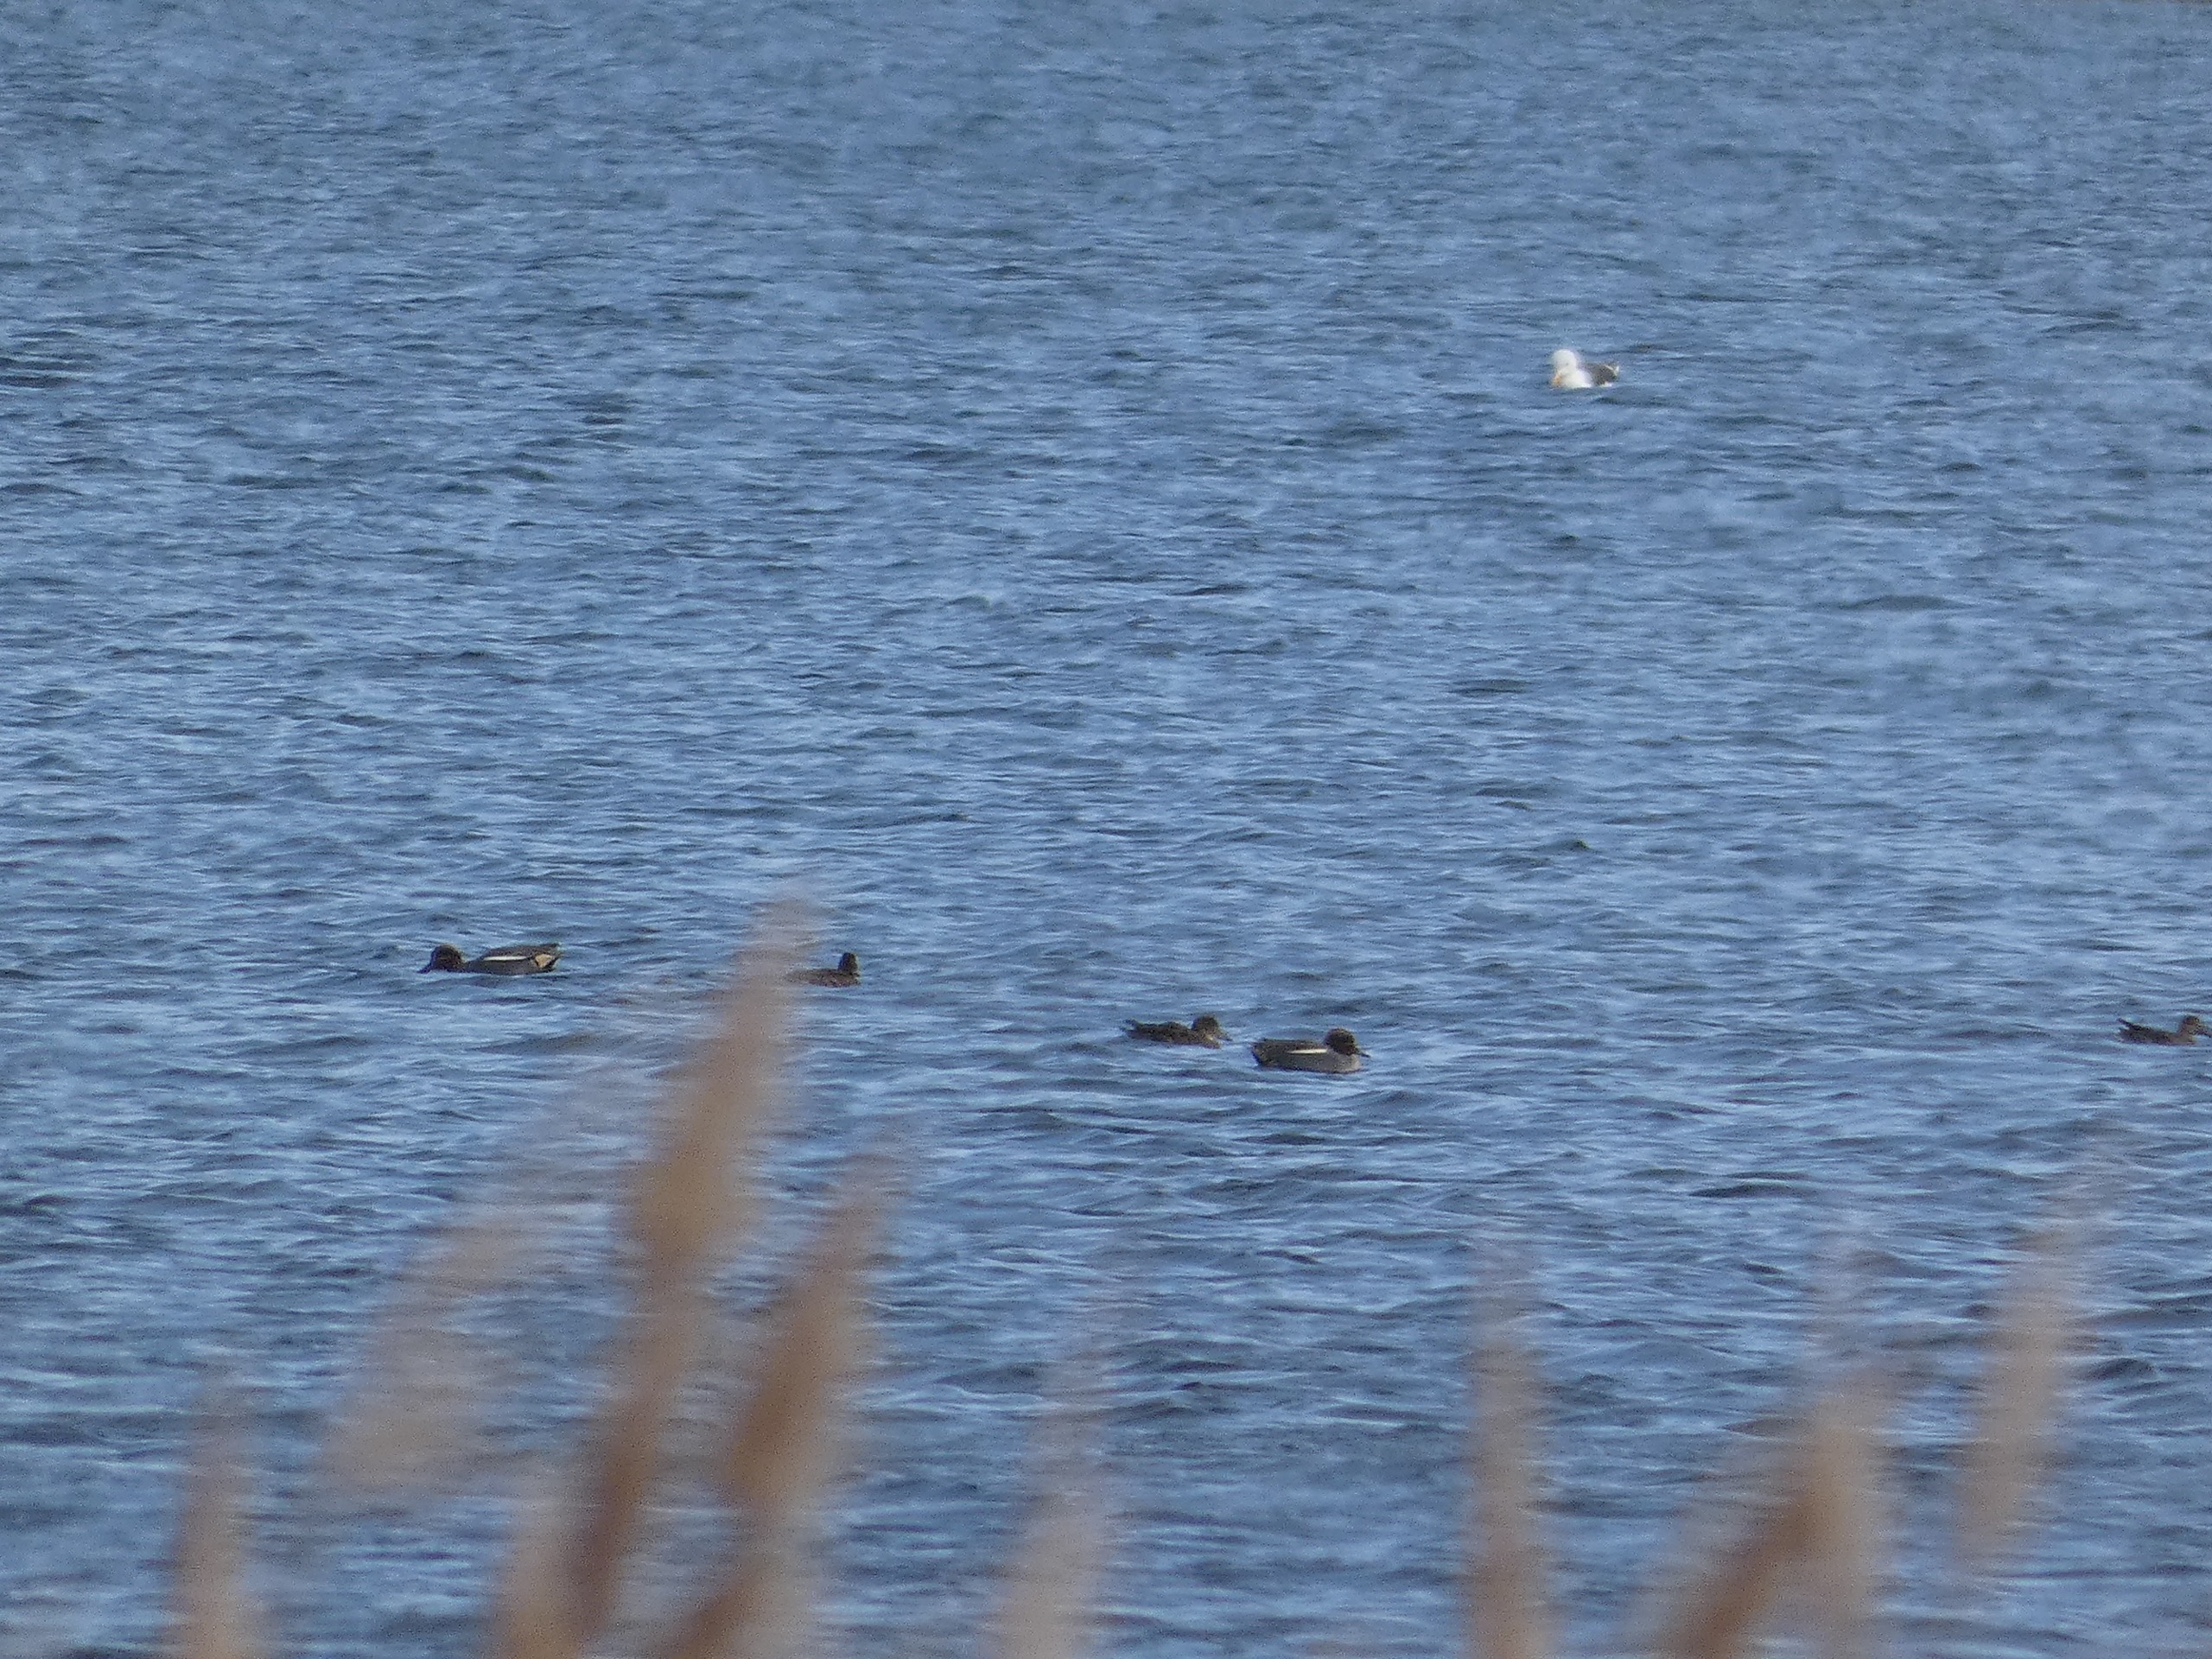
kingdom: Animalia
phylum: Chordata
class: Aves
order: Anseriformes
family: Anatidae
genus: Anas
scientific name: Anas crecca
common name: Krikand
